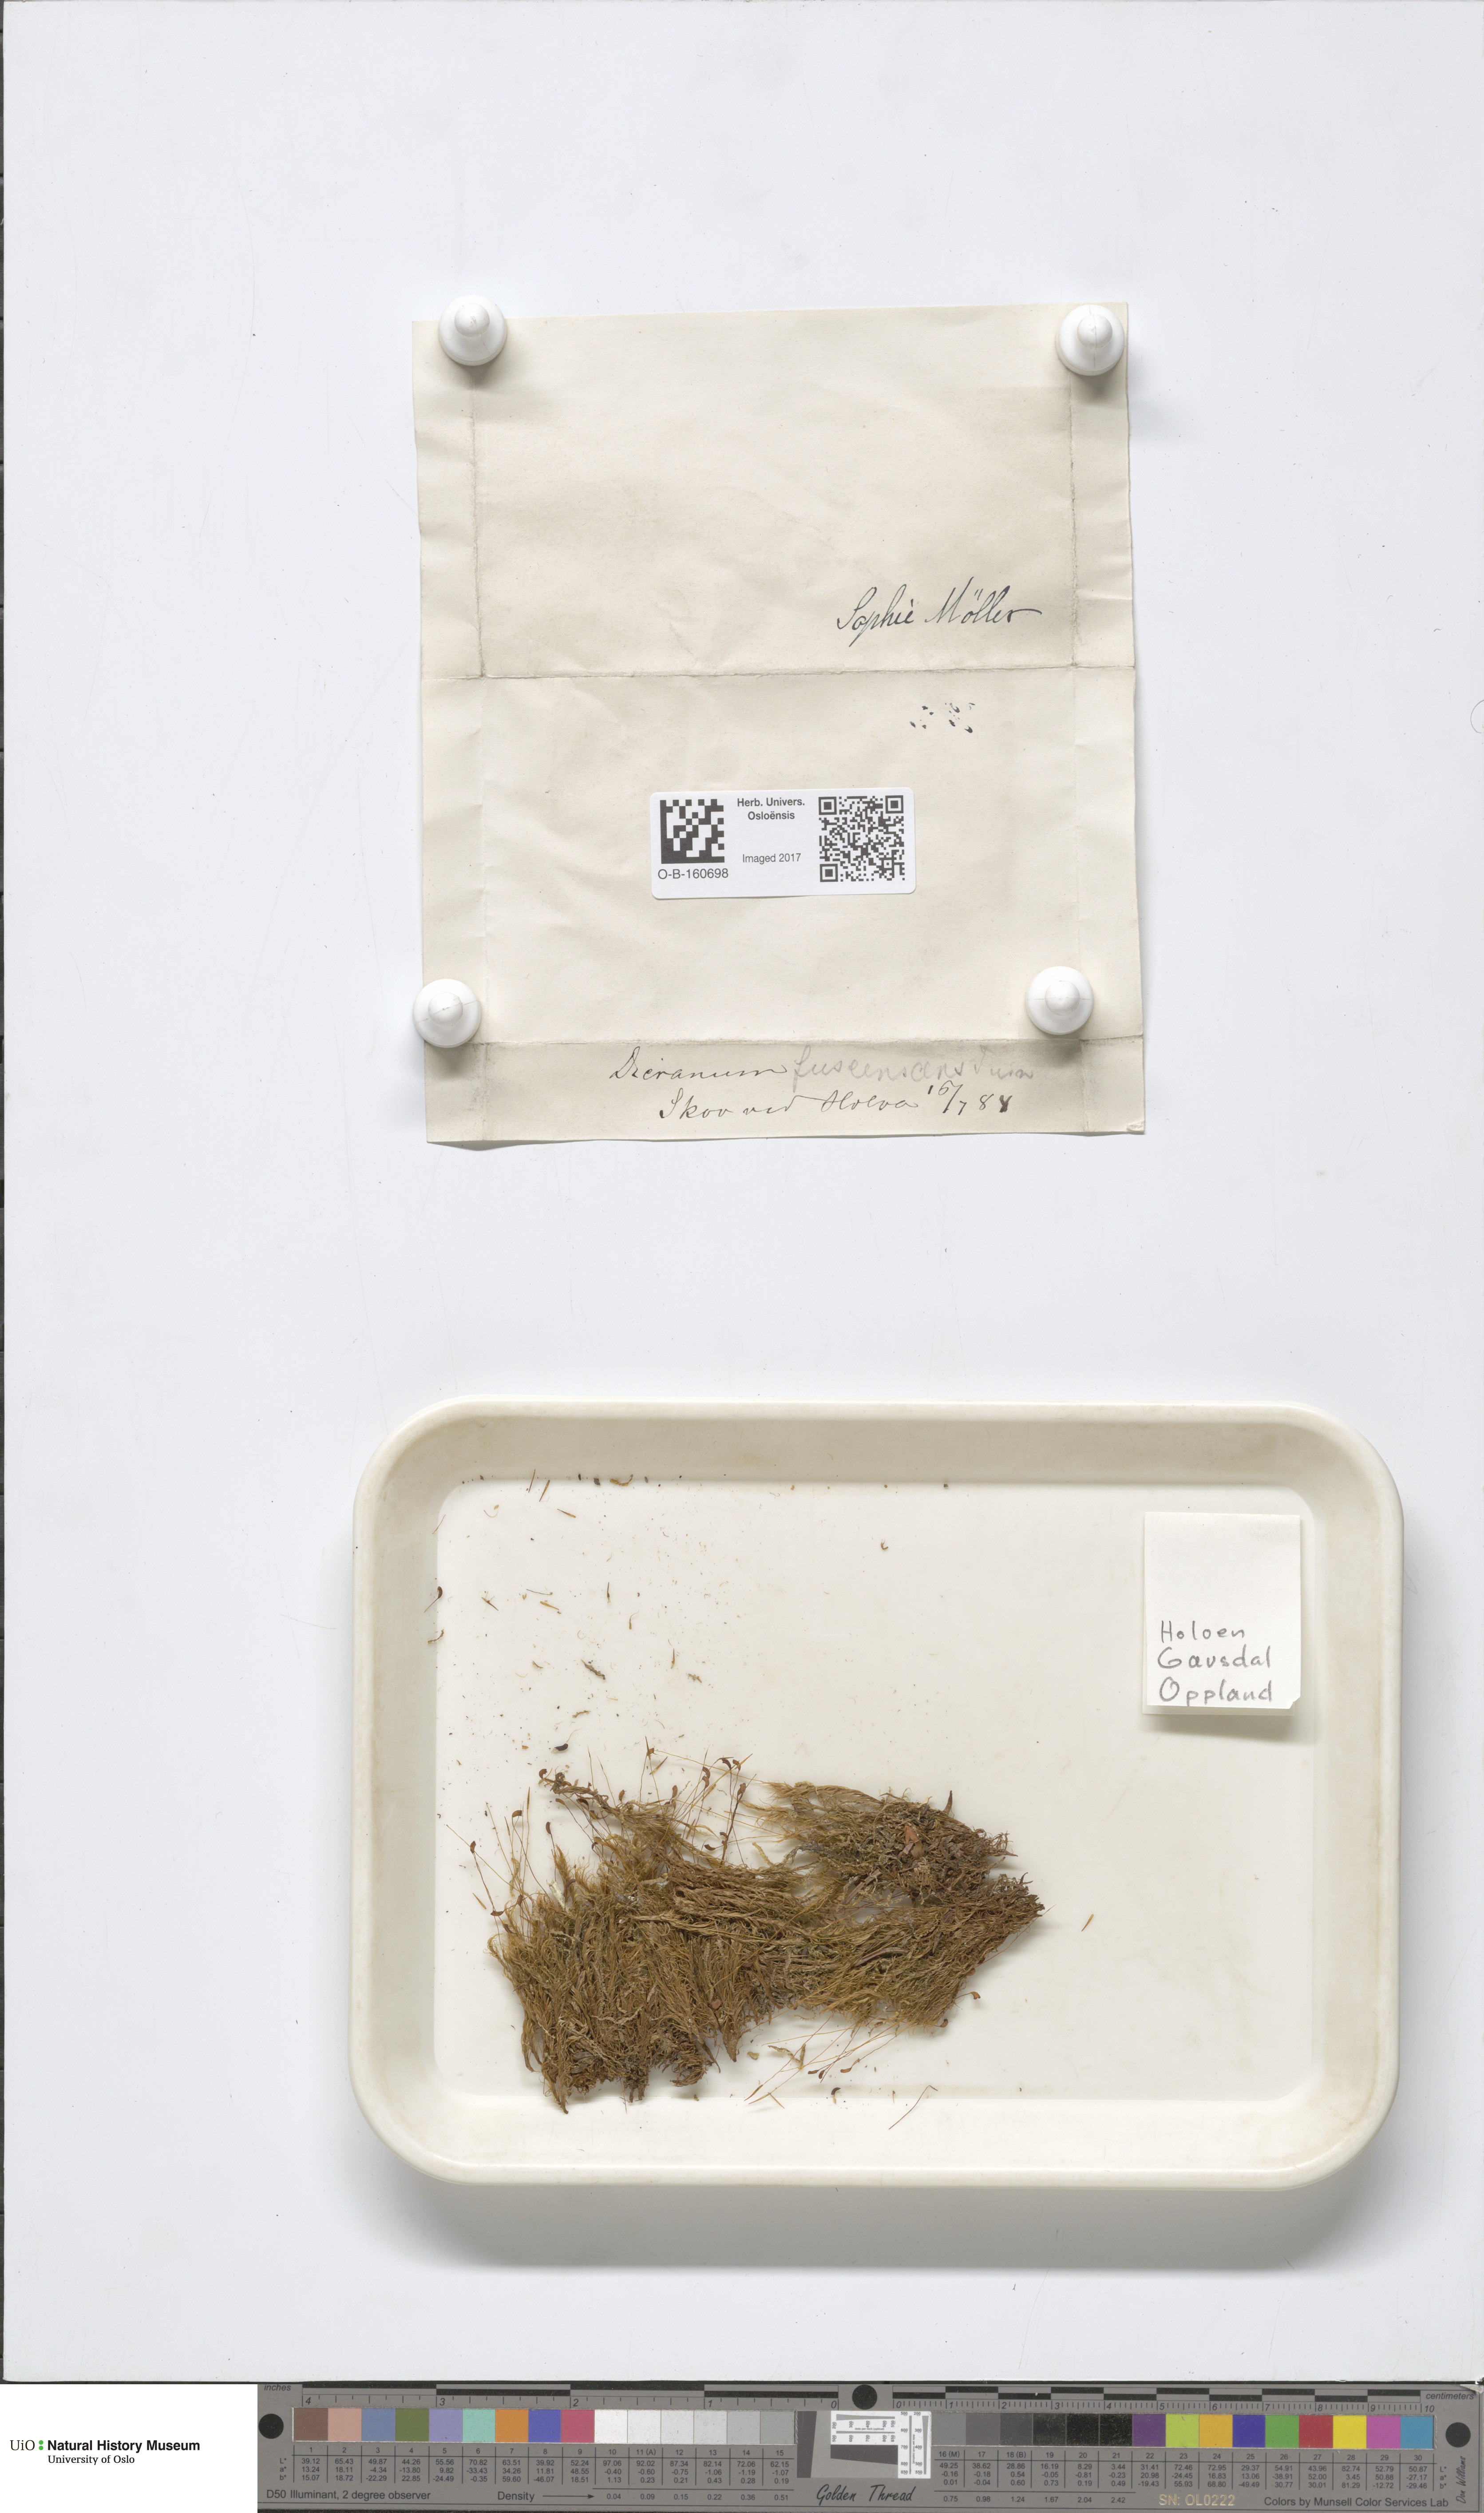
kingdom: Plantae
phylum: Bryophyta
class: Bryopsida
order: Dicranales
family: Dicranaceae
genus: Dicranum
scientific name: Dicranum fuscescens
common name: Curly heron's-bill moss
